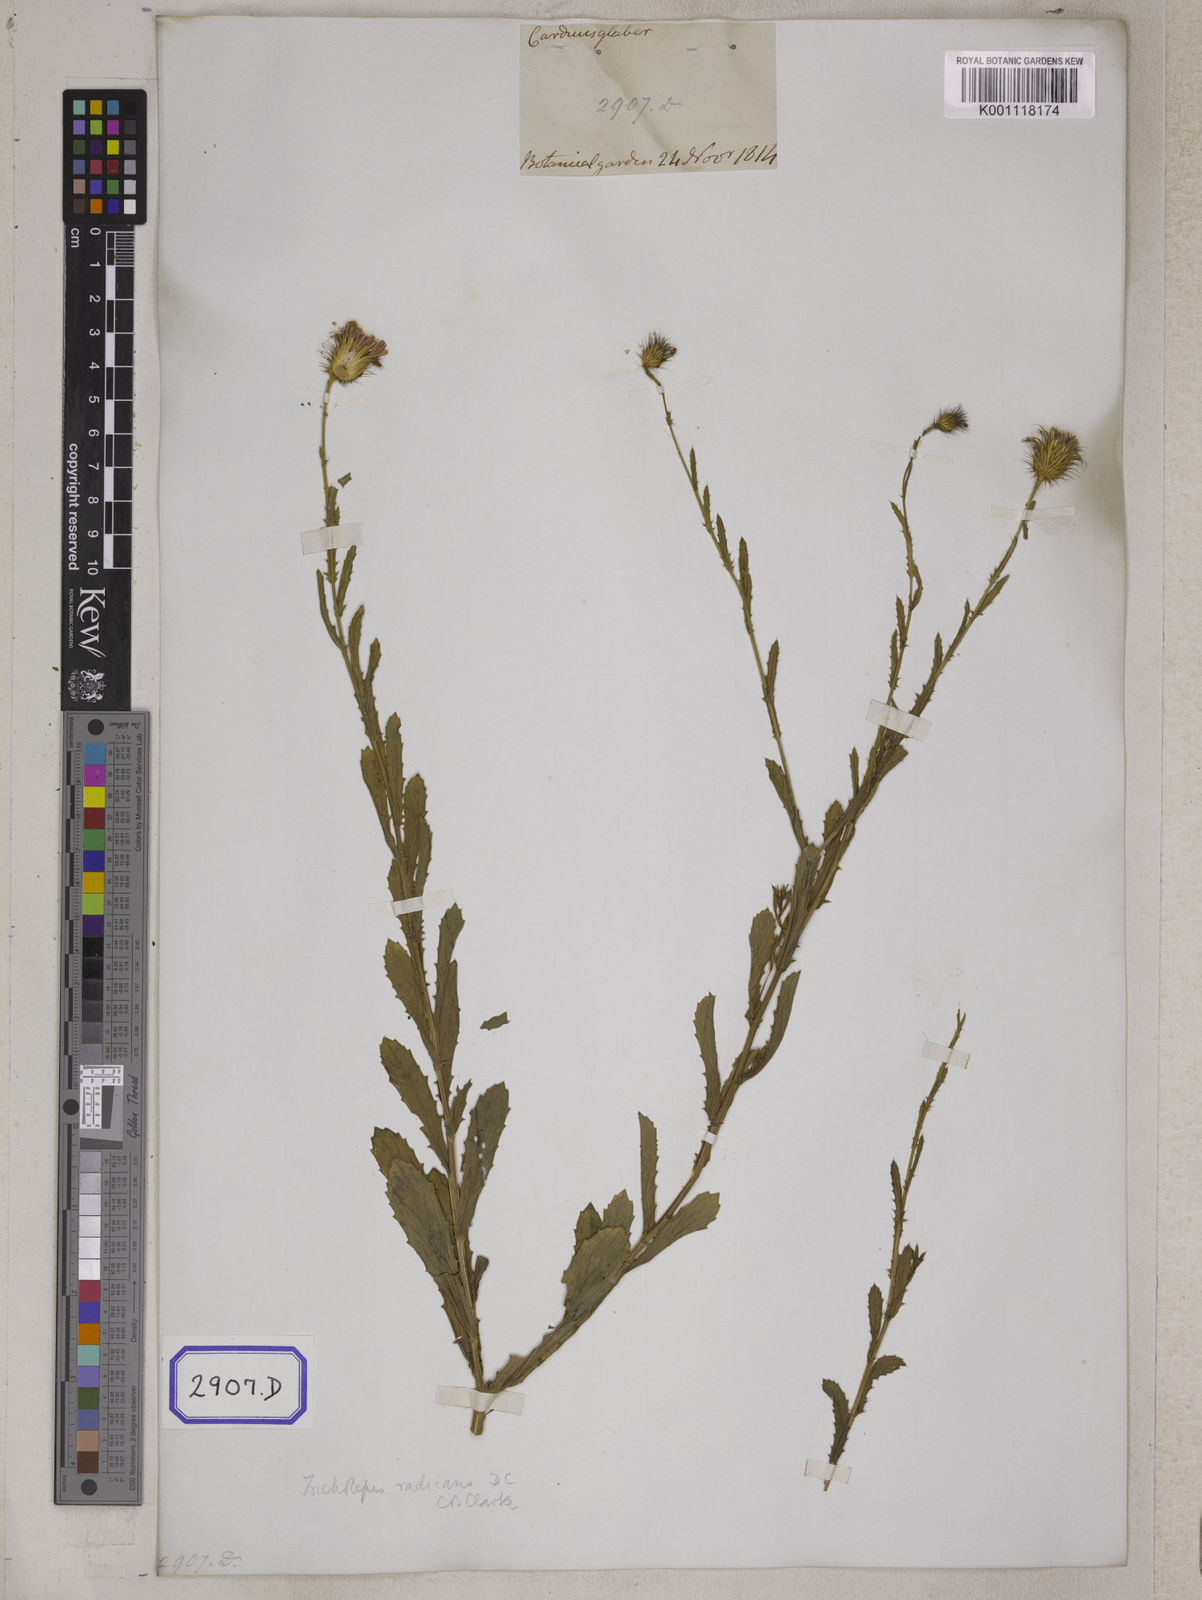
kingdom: Plantae
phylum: Tracheophyta
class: Magnoliopsida
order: Asterales
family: Asteraceae
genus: Tricholepis
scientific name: Tricholepis radicans
